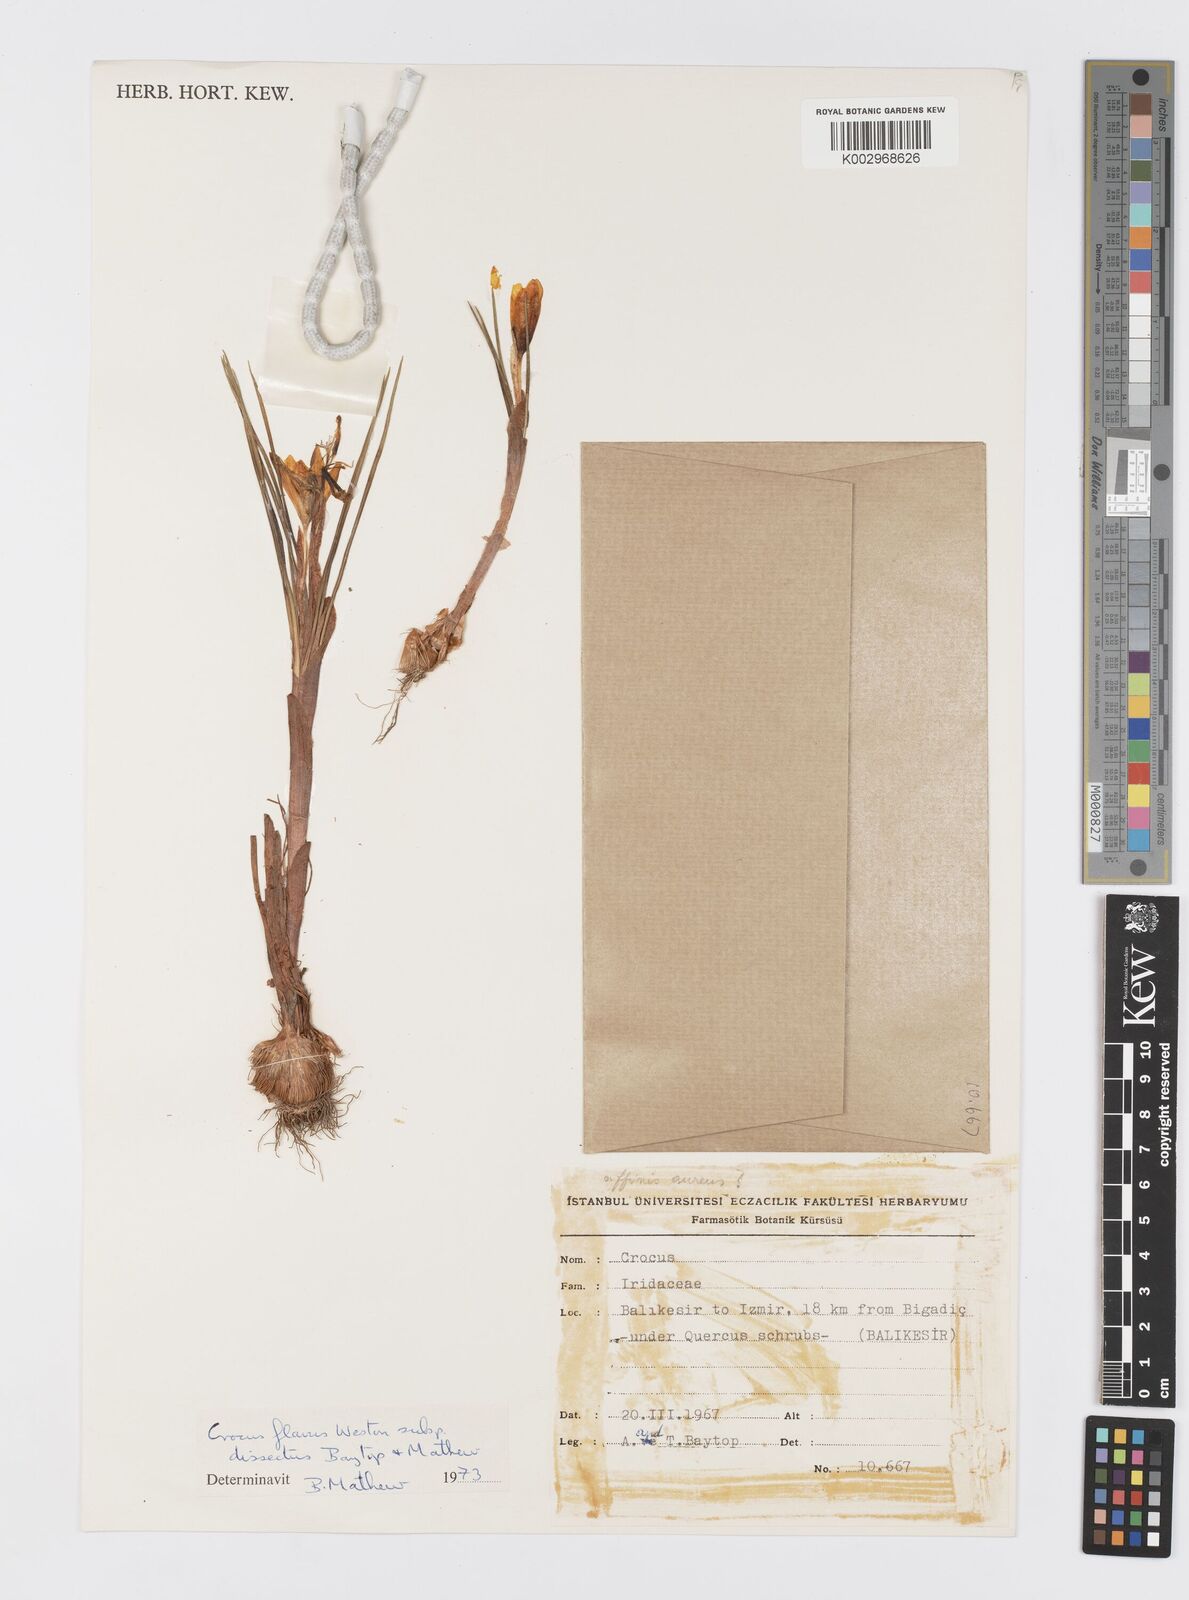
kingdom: Plantae
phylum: Tracheophyta
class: Liliopsida
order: Asparagales
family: Iridaceae
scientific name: Iridaceae
